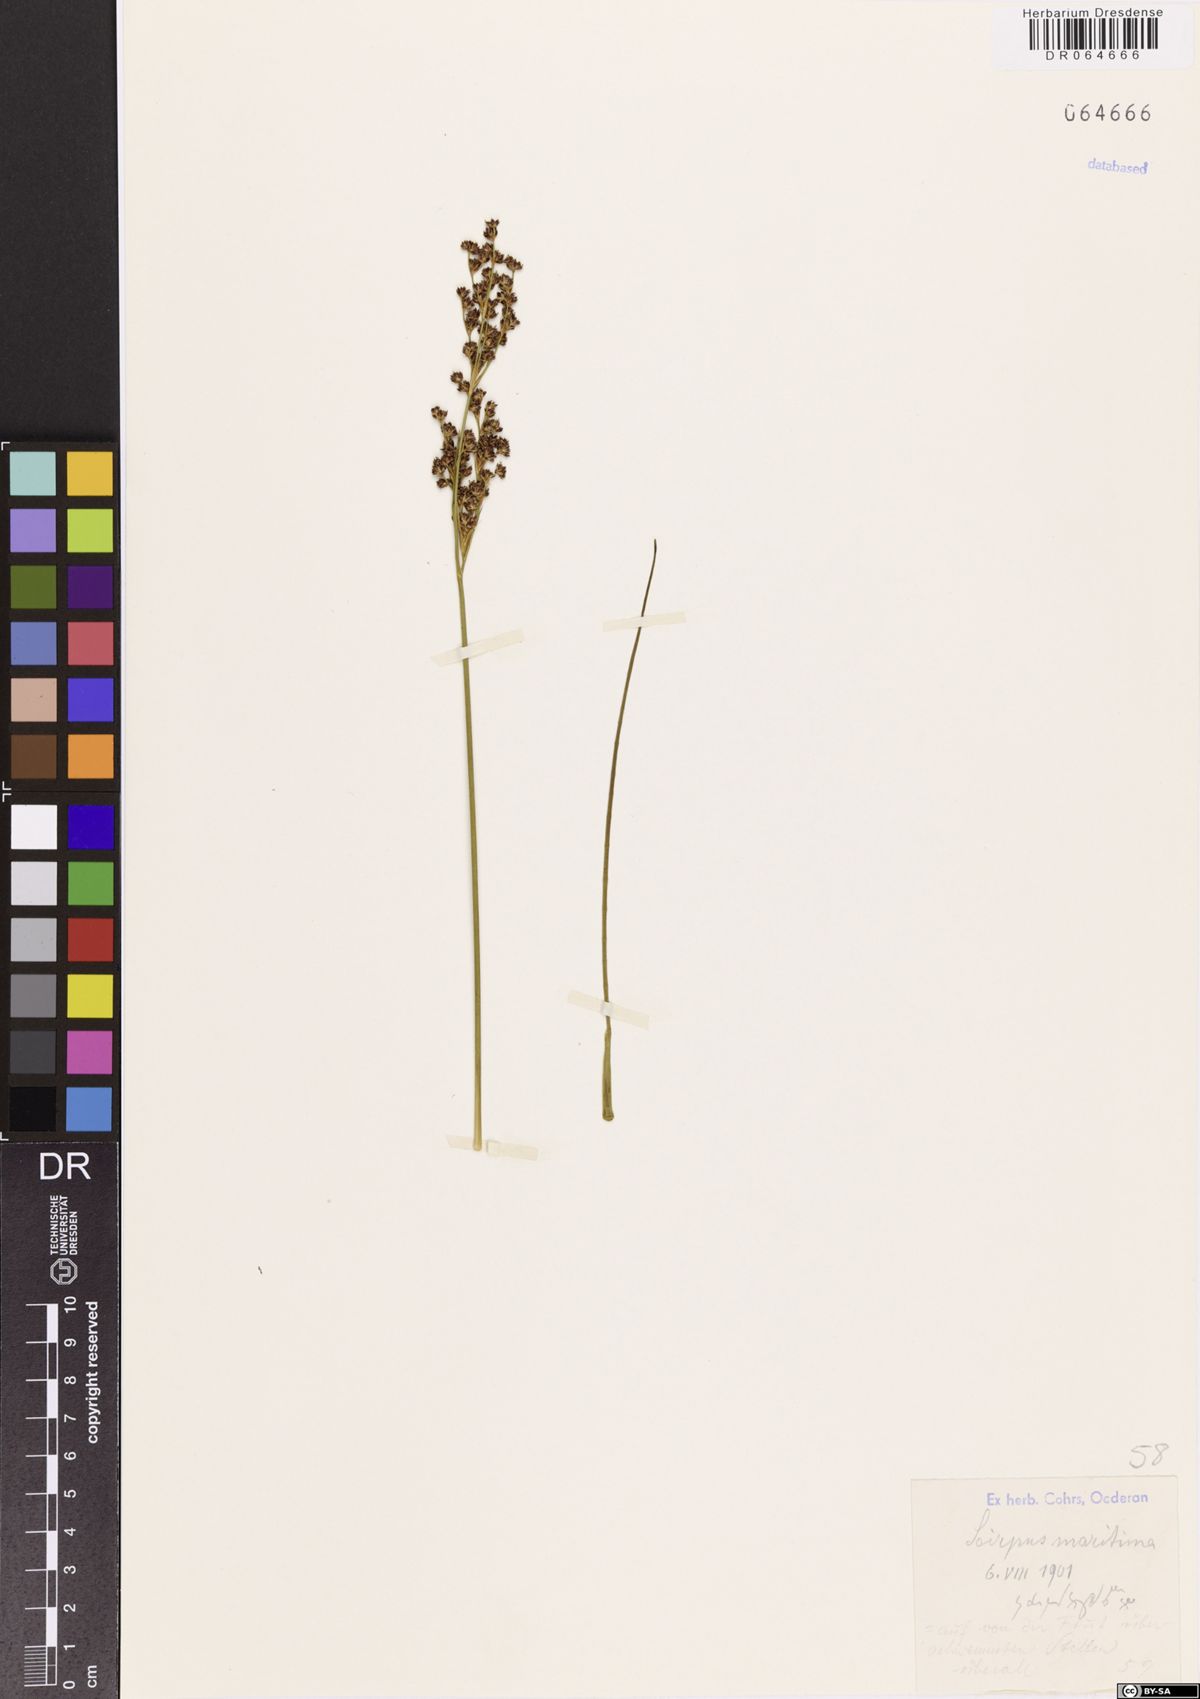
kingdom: Plantae
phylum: Tracheophyta
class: Liliopsida
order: Poales
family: Cyperaceae
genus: Bolboschoenus
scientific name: Bolboschoenus maritimus
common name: Sea club-rush
